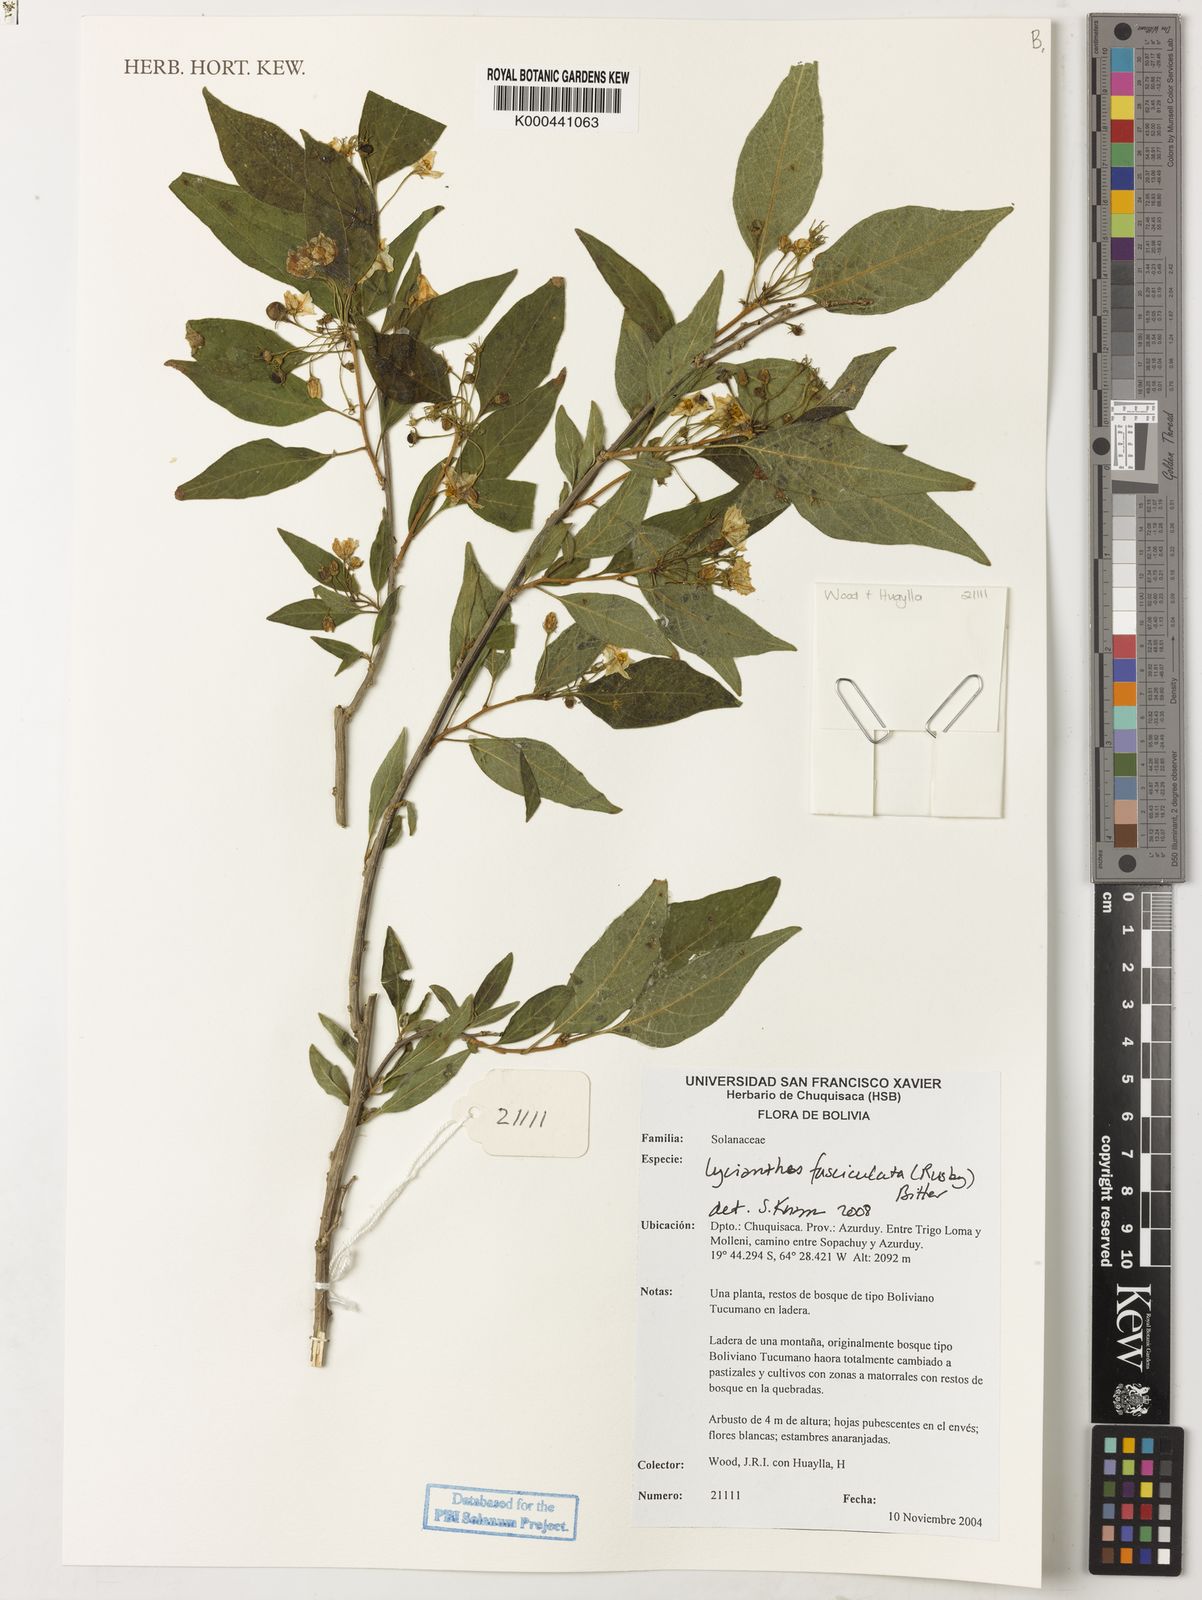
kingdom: Plantae
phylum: Tracheophyta
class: Magnoliopsida
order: Solanales
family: Solanaceae
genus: Lycianthes
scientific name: Lycianthes fasciculata
